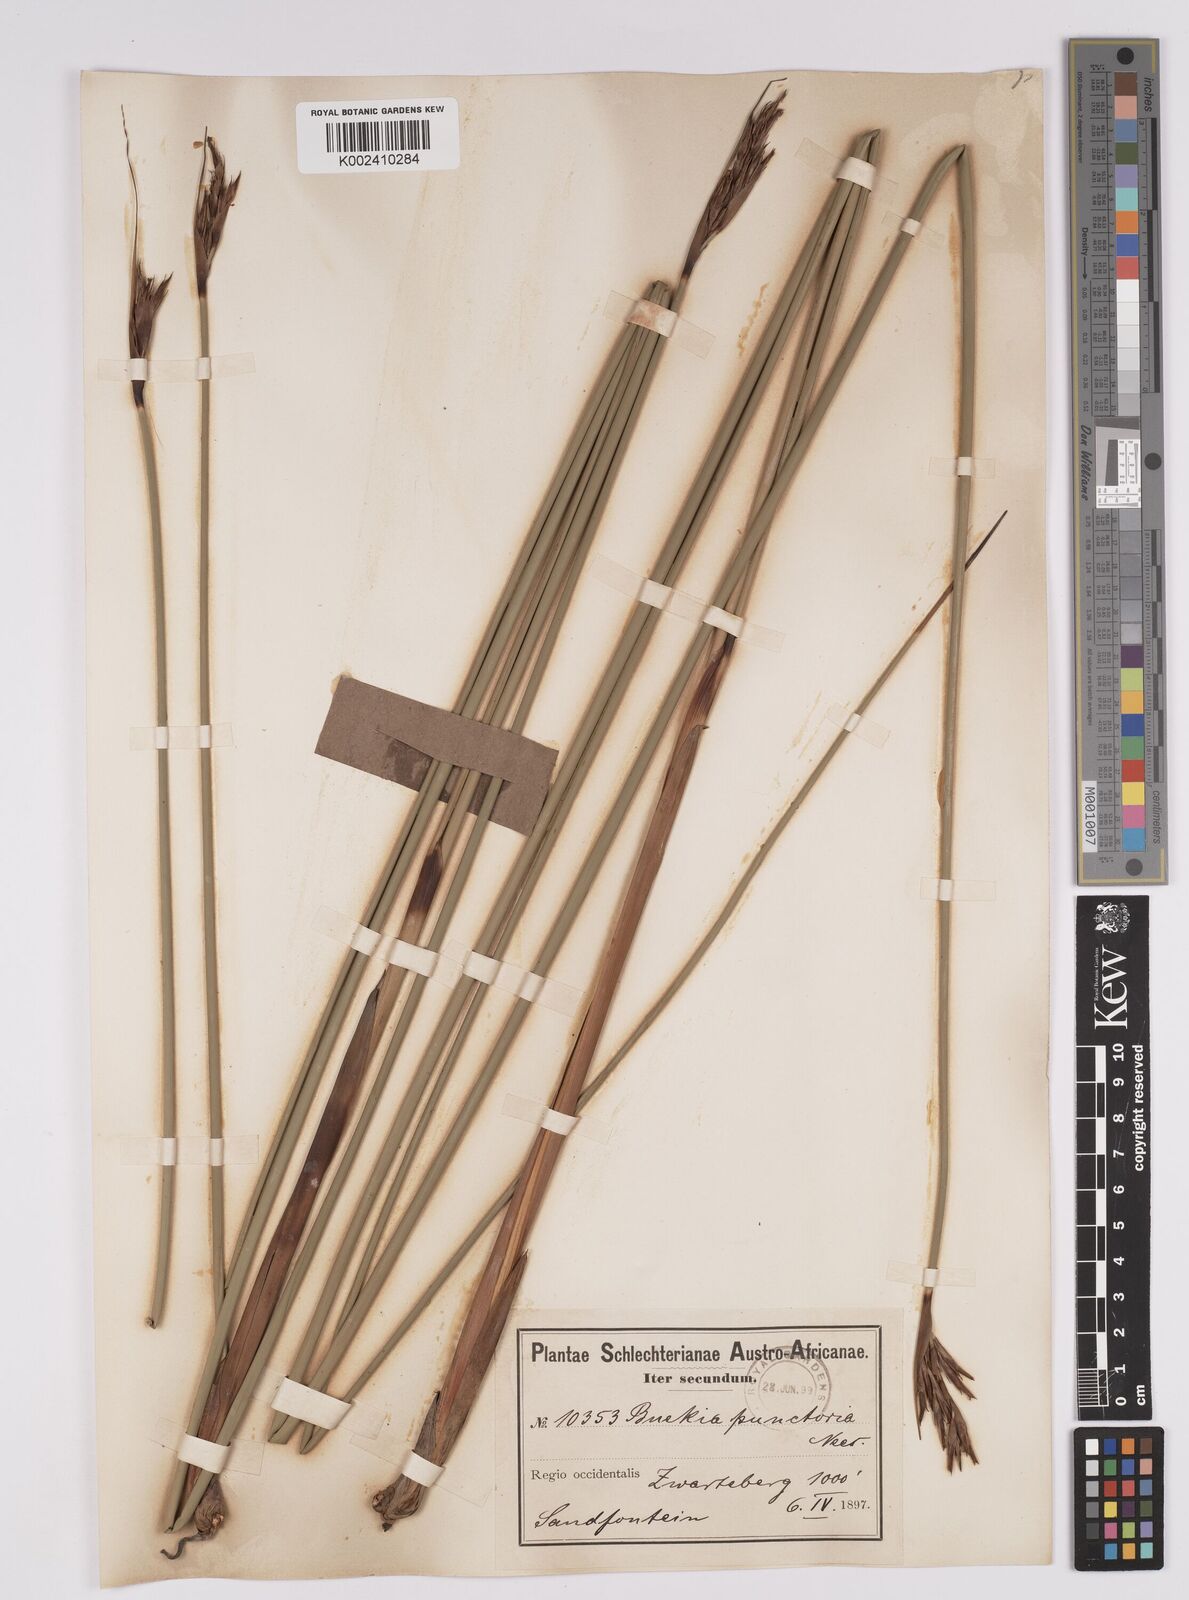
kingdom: Plantae
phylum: Tracheophyta
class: Liliopsida
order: Poales
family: Cyperaceae
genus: Neesenbeckia
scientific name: Neesenbeckia punctoria
